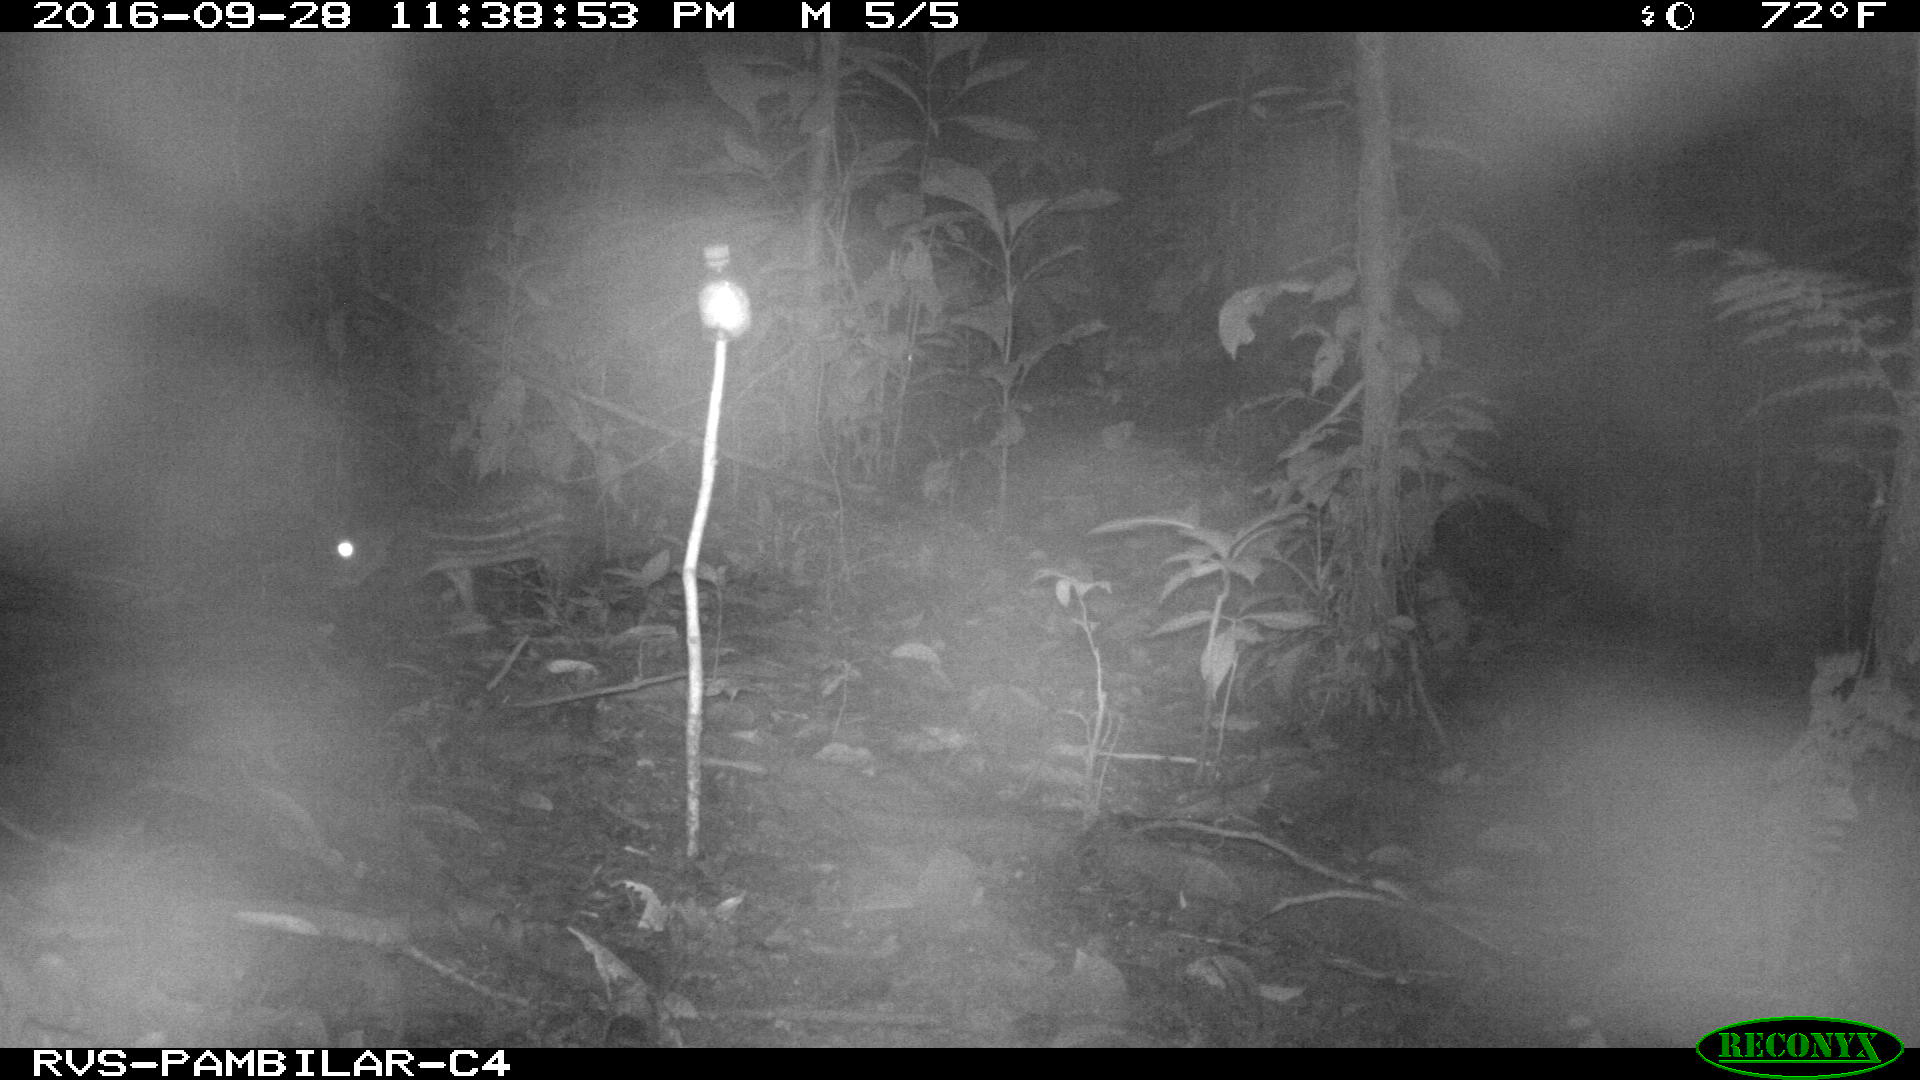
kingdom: Animalia
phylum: Chordata
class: Mammalia
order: Rodentia
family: Cuniculidae
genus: Cuniculus
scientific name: Cuniculus paca
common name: Lowland paca
